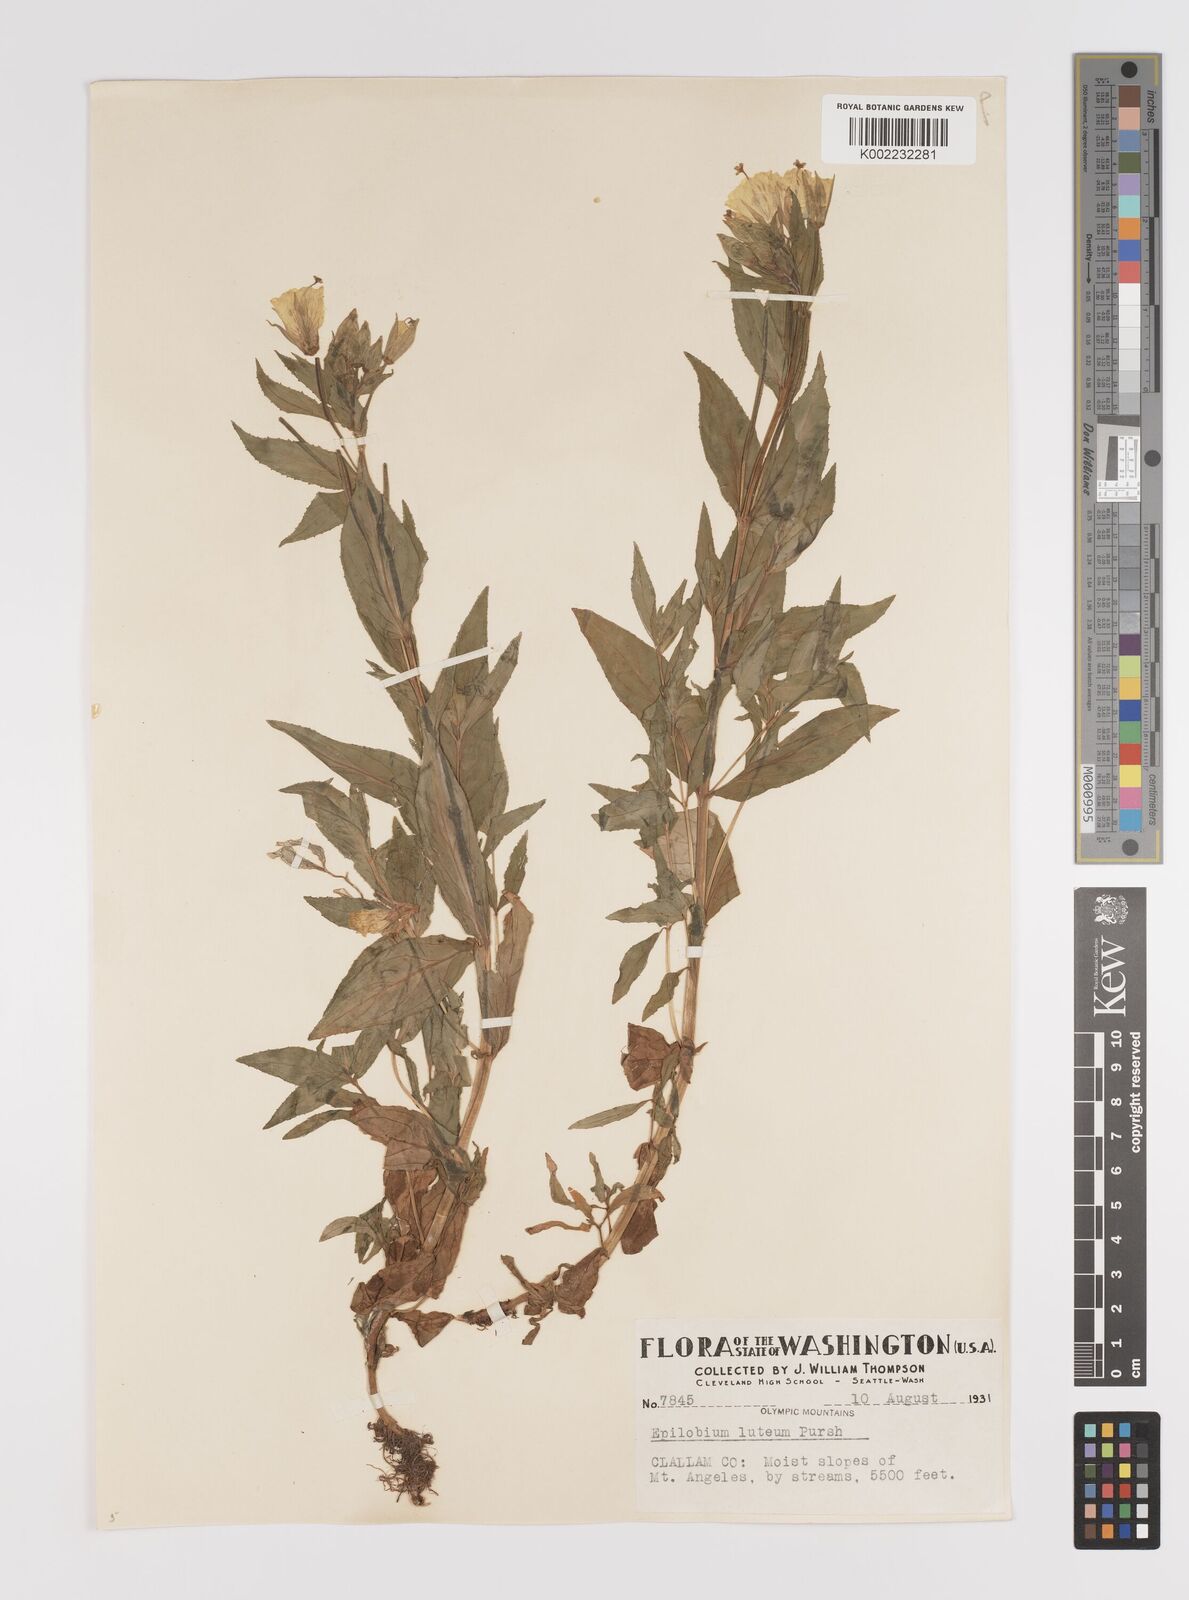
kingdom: Plantae
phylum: Tracheophyta
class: Magnoliopsida
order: Myrtales
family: Onagraceae
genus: Epilobium
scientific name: Epilobium luteum
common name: Yellow willowherb
